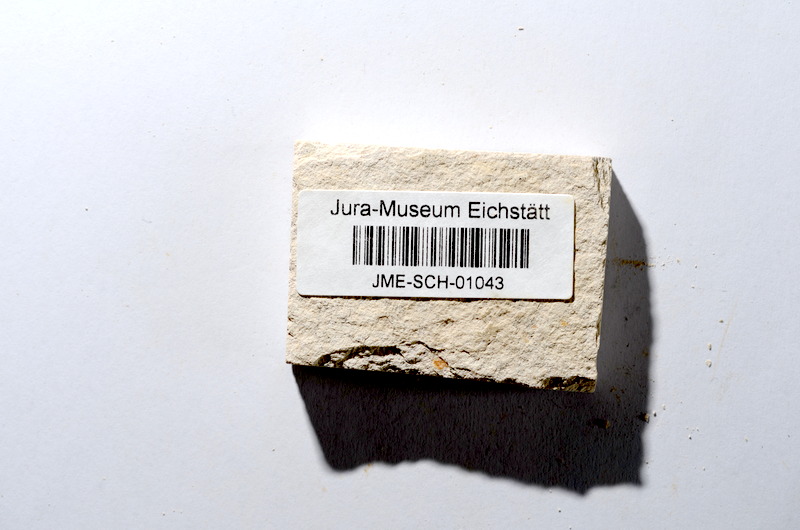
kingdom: Animalia
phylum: Chordata
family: Ascalaboidae
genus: Tharsis
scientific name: Tharsis dubius
